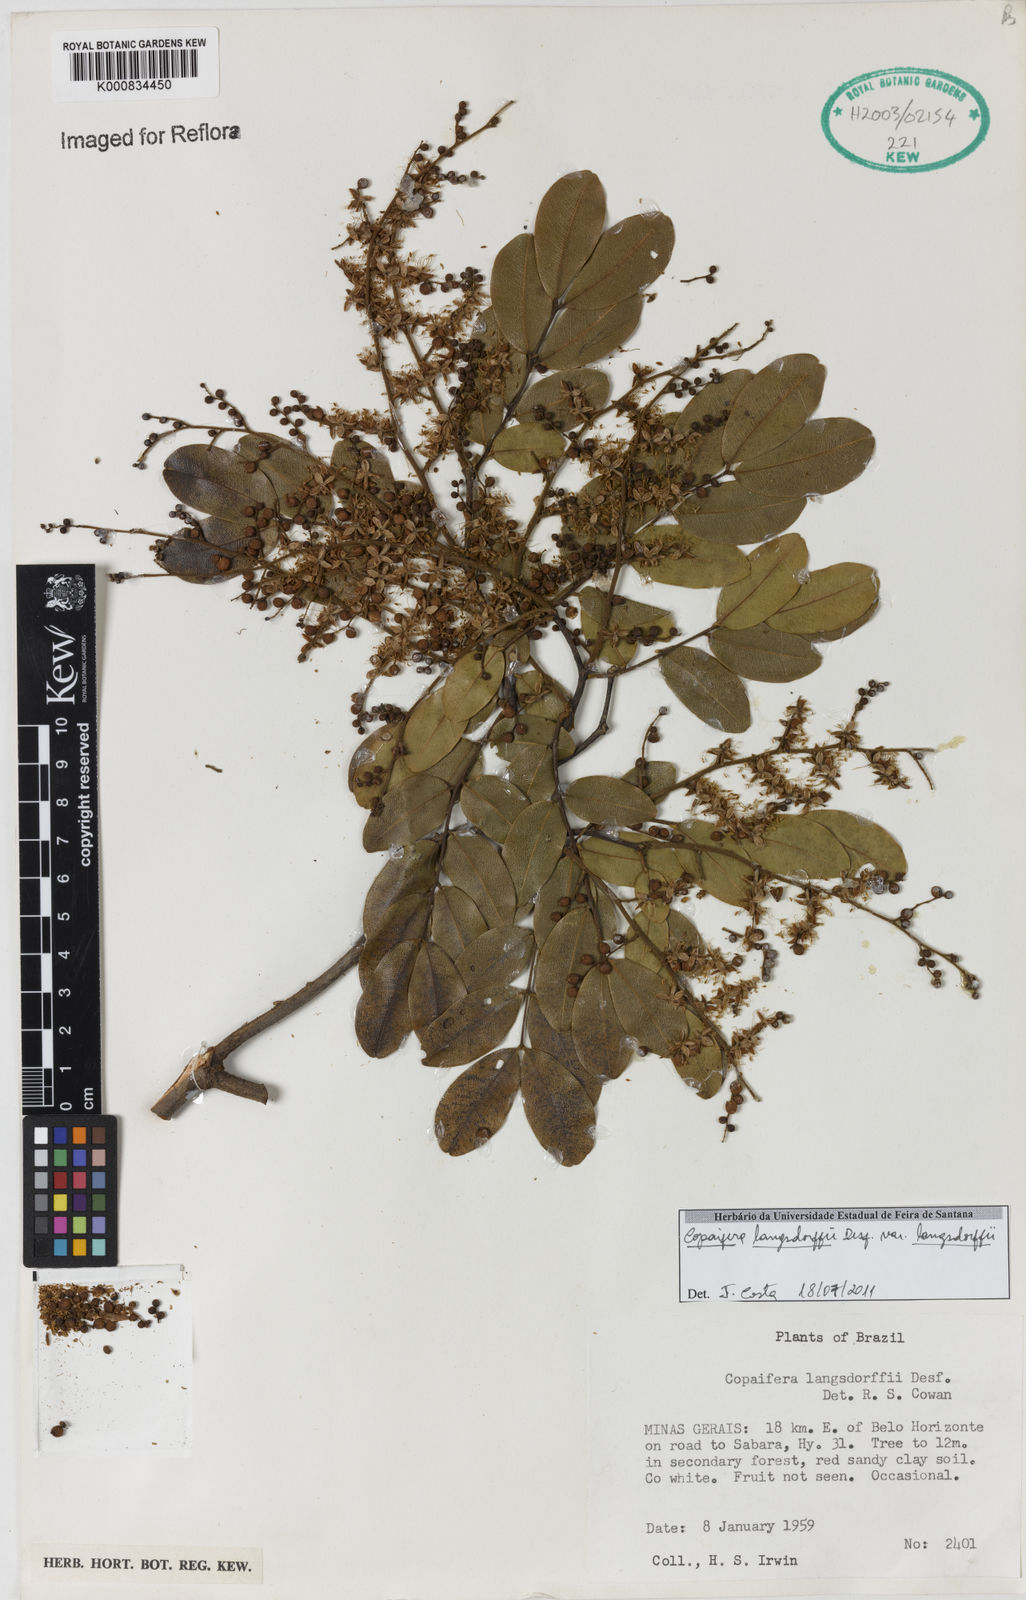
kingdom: Plantae
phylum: Tracheophyta
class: Magnoliopsida
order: Fabales
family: Fabaceae
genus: Copaifera
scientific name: Copaifera langsdorffii
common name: Brazilian diesel tree
